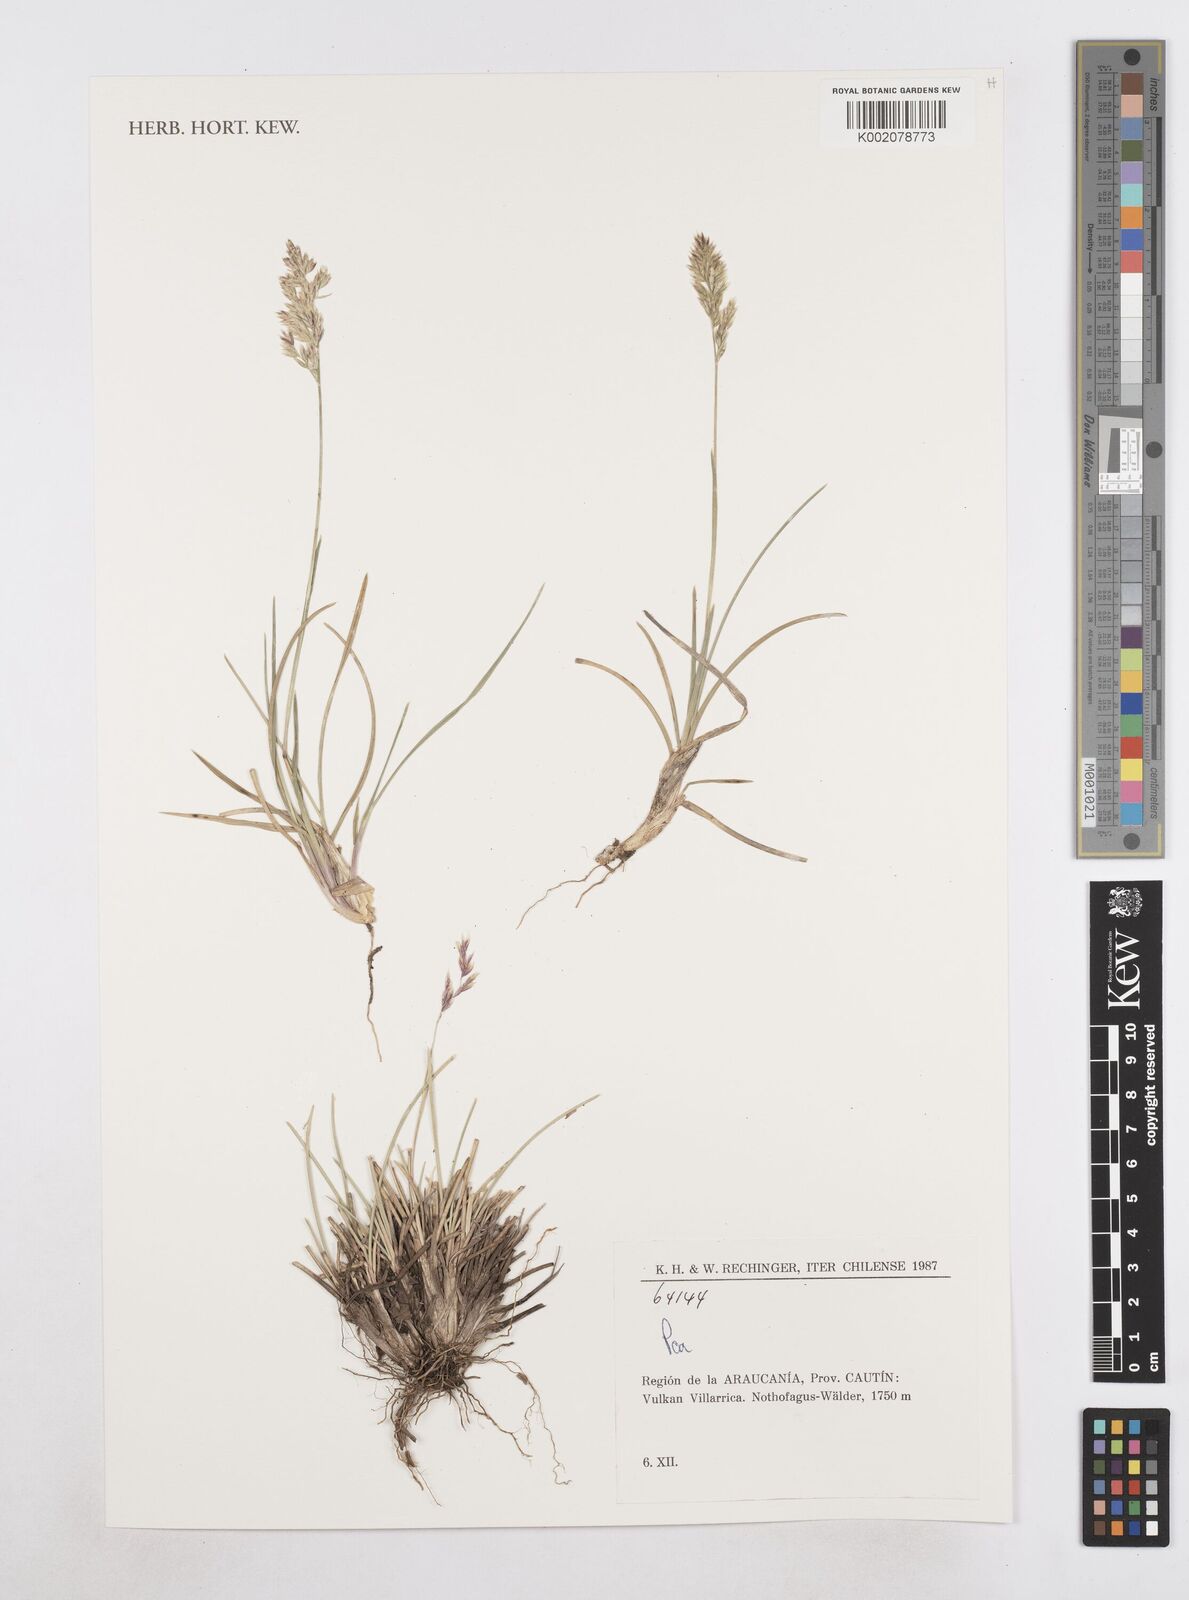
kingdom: Plantae
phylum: Tracheophyta
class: Liliopsida
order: Poales
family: Poaceae
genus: Poa
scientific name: Poa
